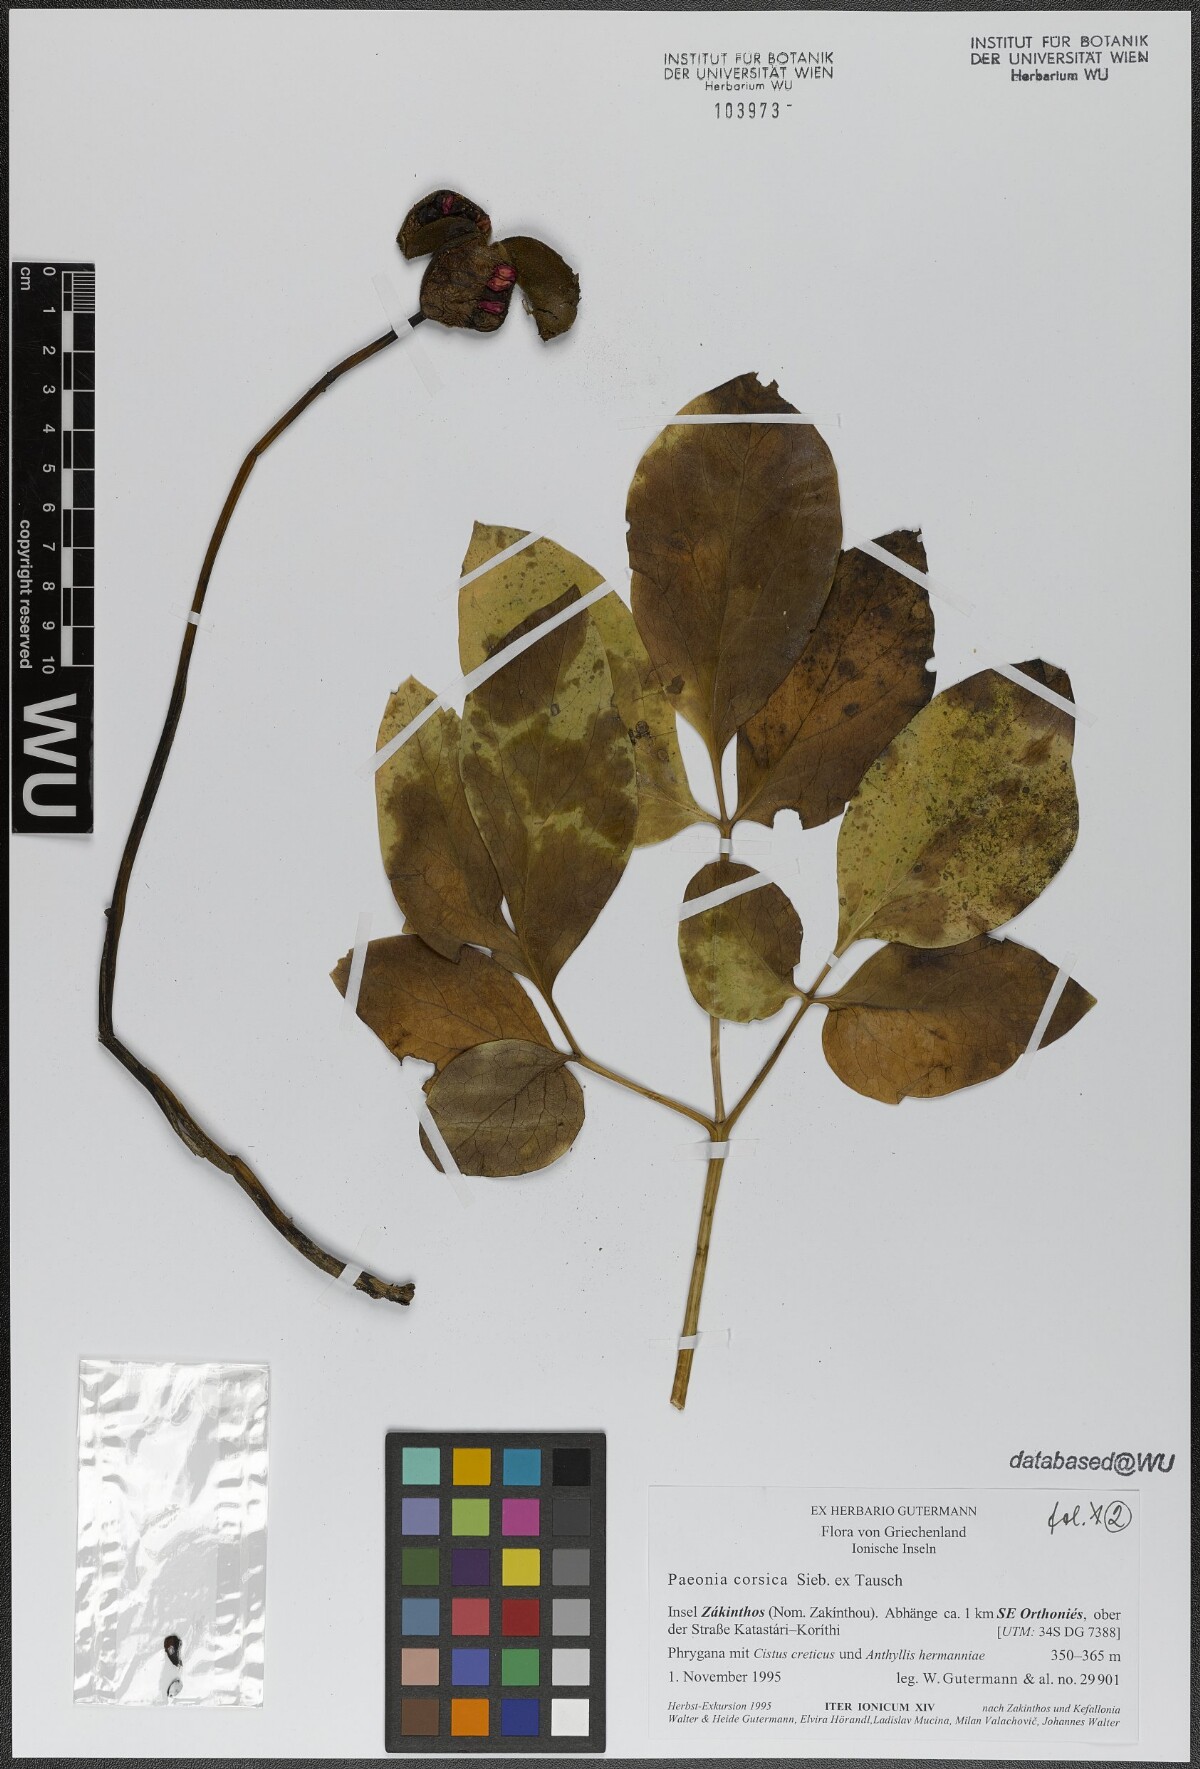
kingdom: Plantae
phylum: Tracheophyta
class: Magnoliopsida
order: Saxifragales
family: Paeoniaceae
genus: Paeonia
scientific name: Paeonia corsica
